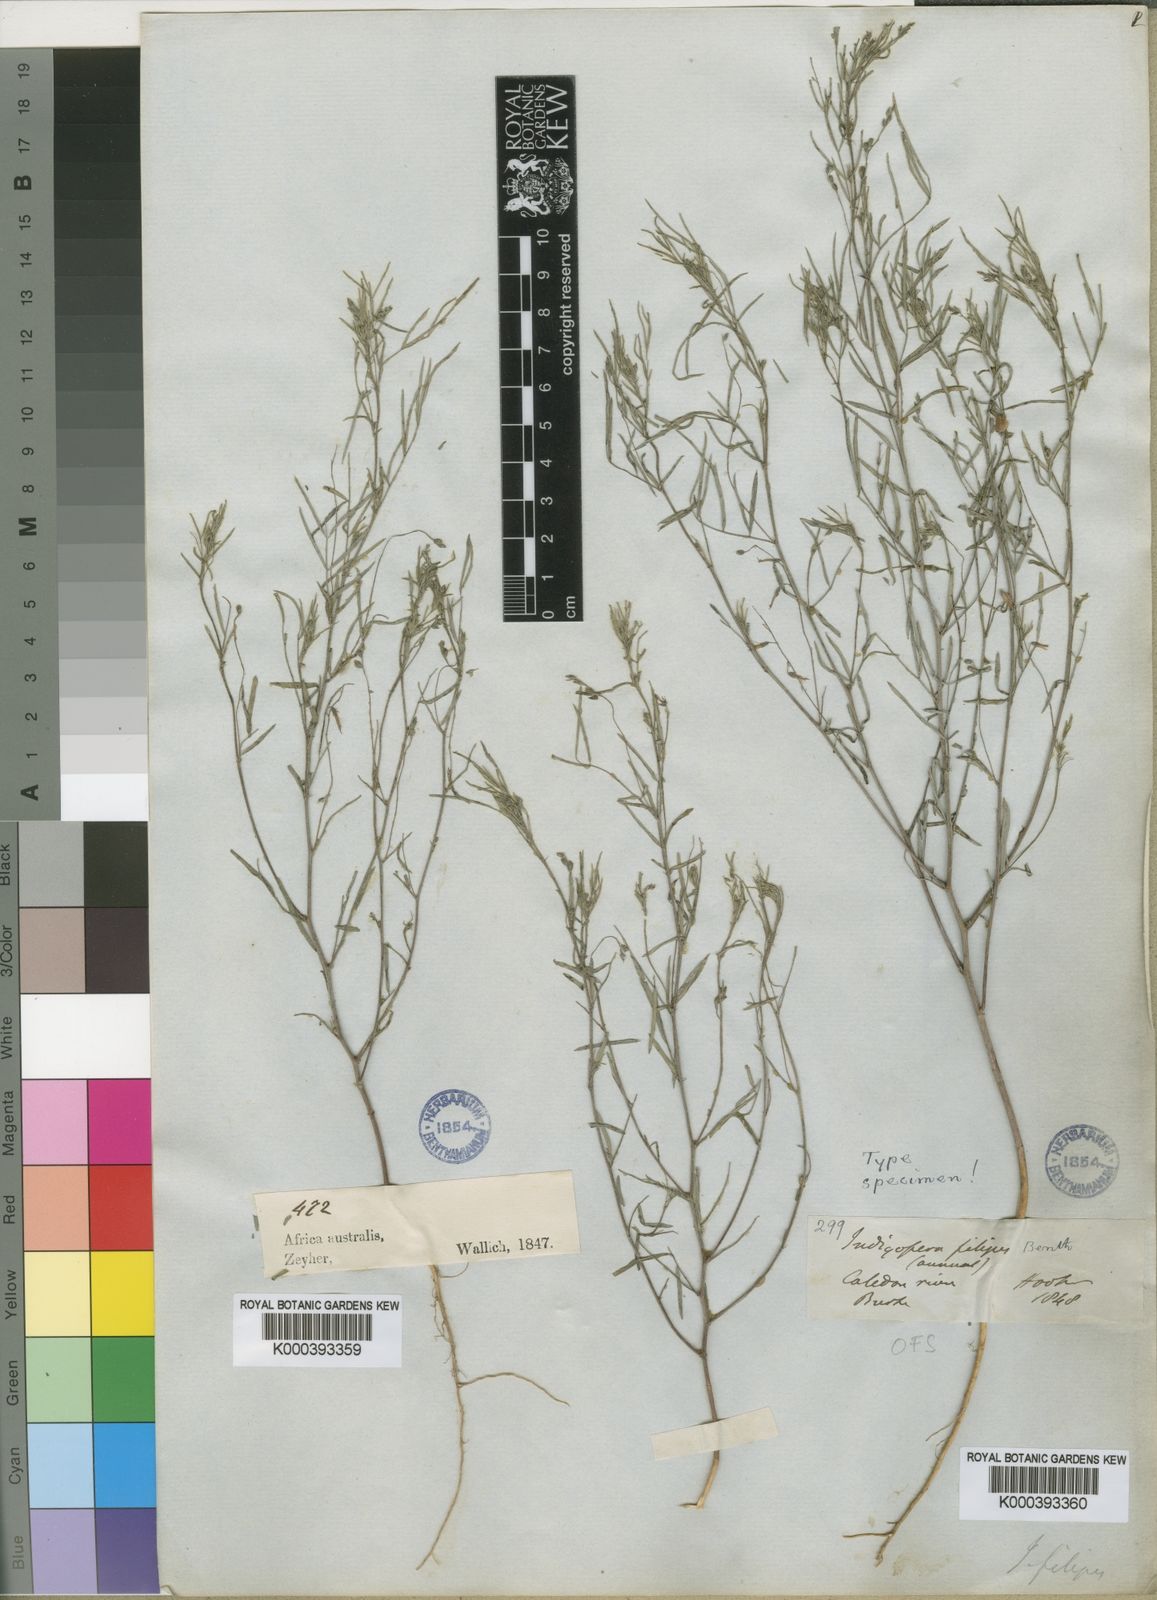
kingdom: Plantae
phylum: Tracheophyta
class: Magnoliopsida
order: Fabales
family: Fabaceae
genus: Indigofera
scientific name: Indigofera filipes
